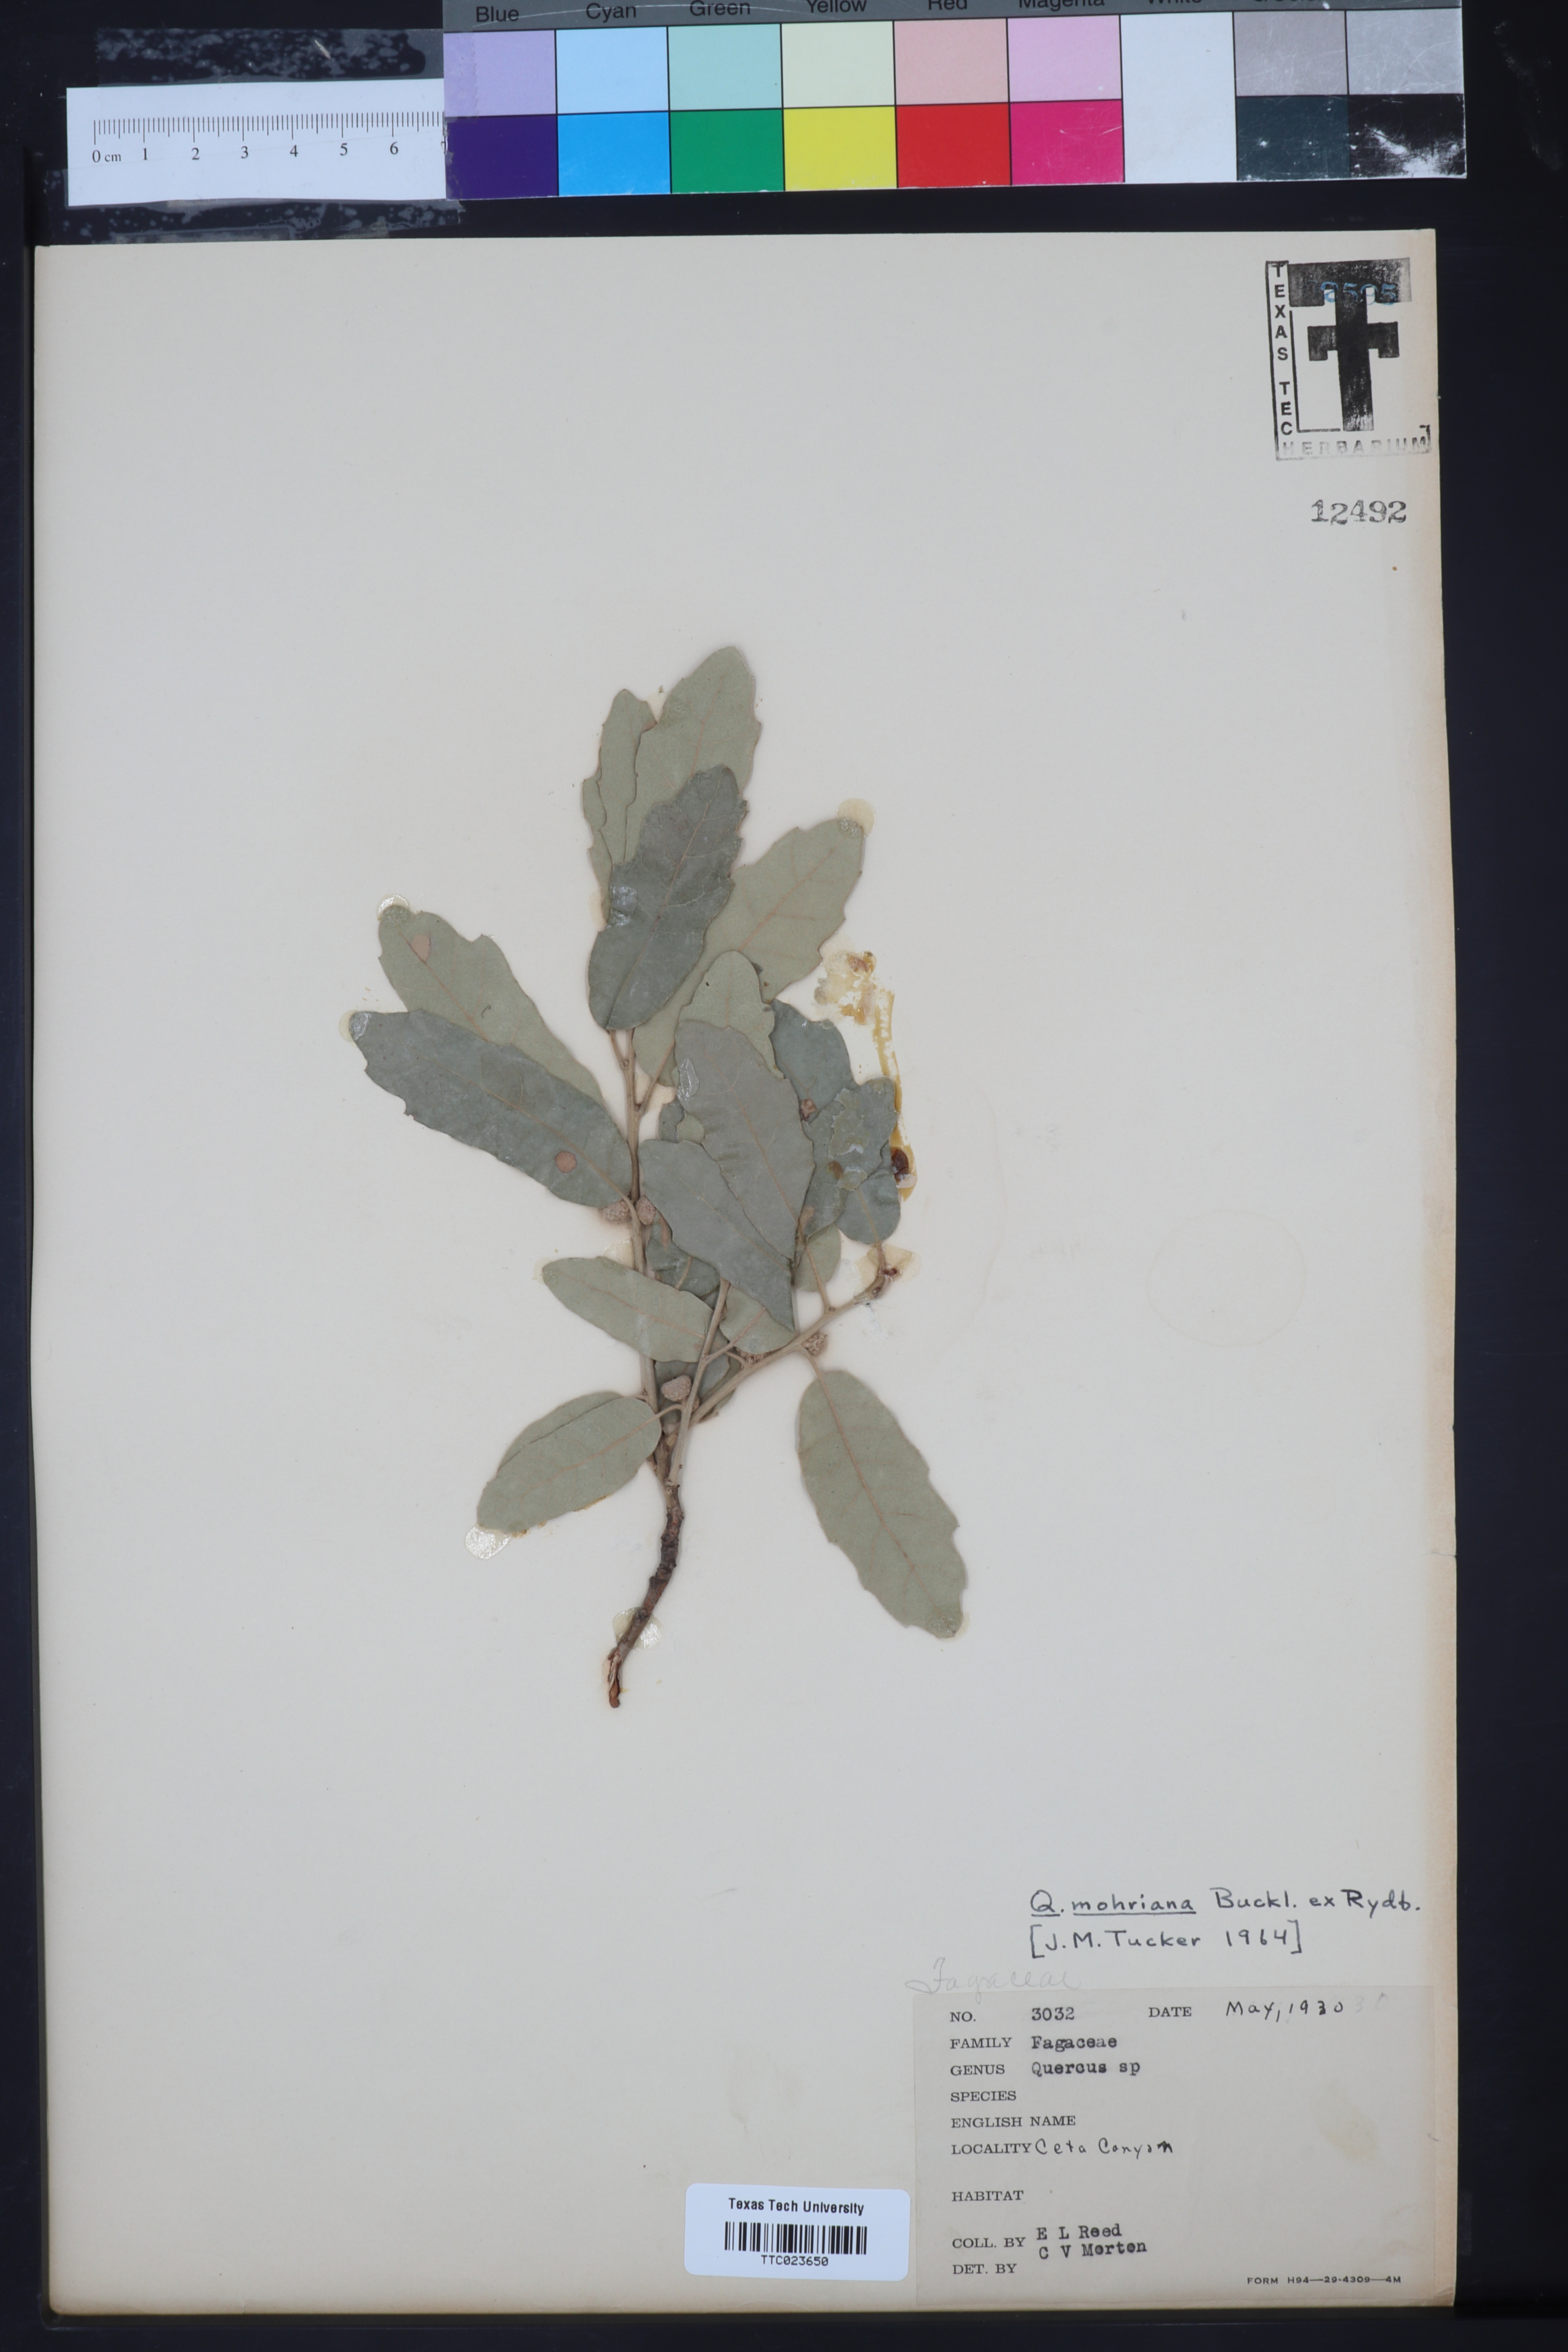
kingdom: Plantae
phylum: Tracheophyta
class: Magnoliopsida
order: Fagales
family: Fagaceae
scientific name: Fagaceae
